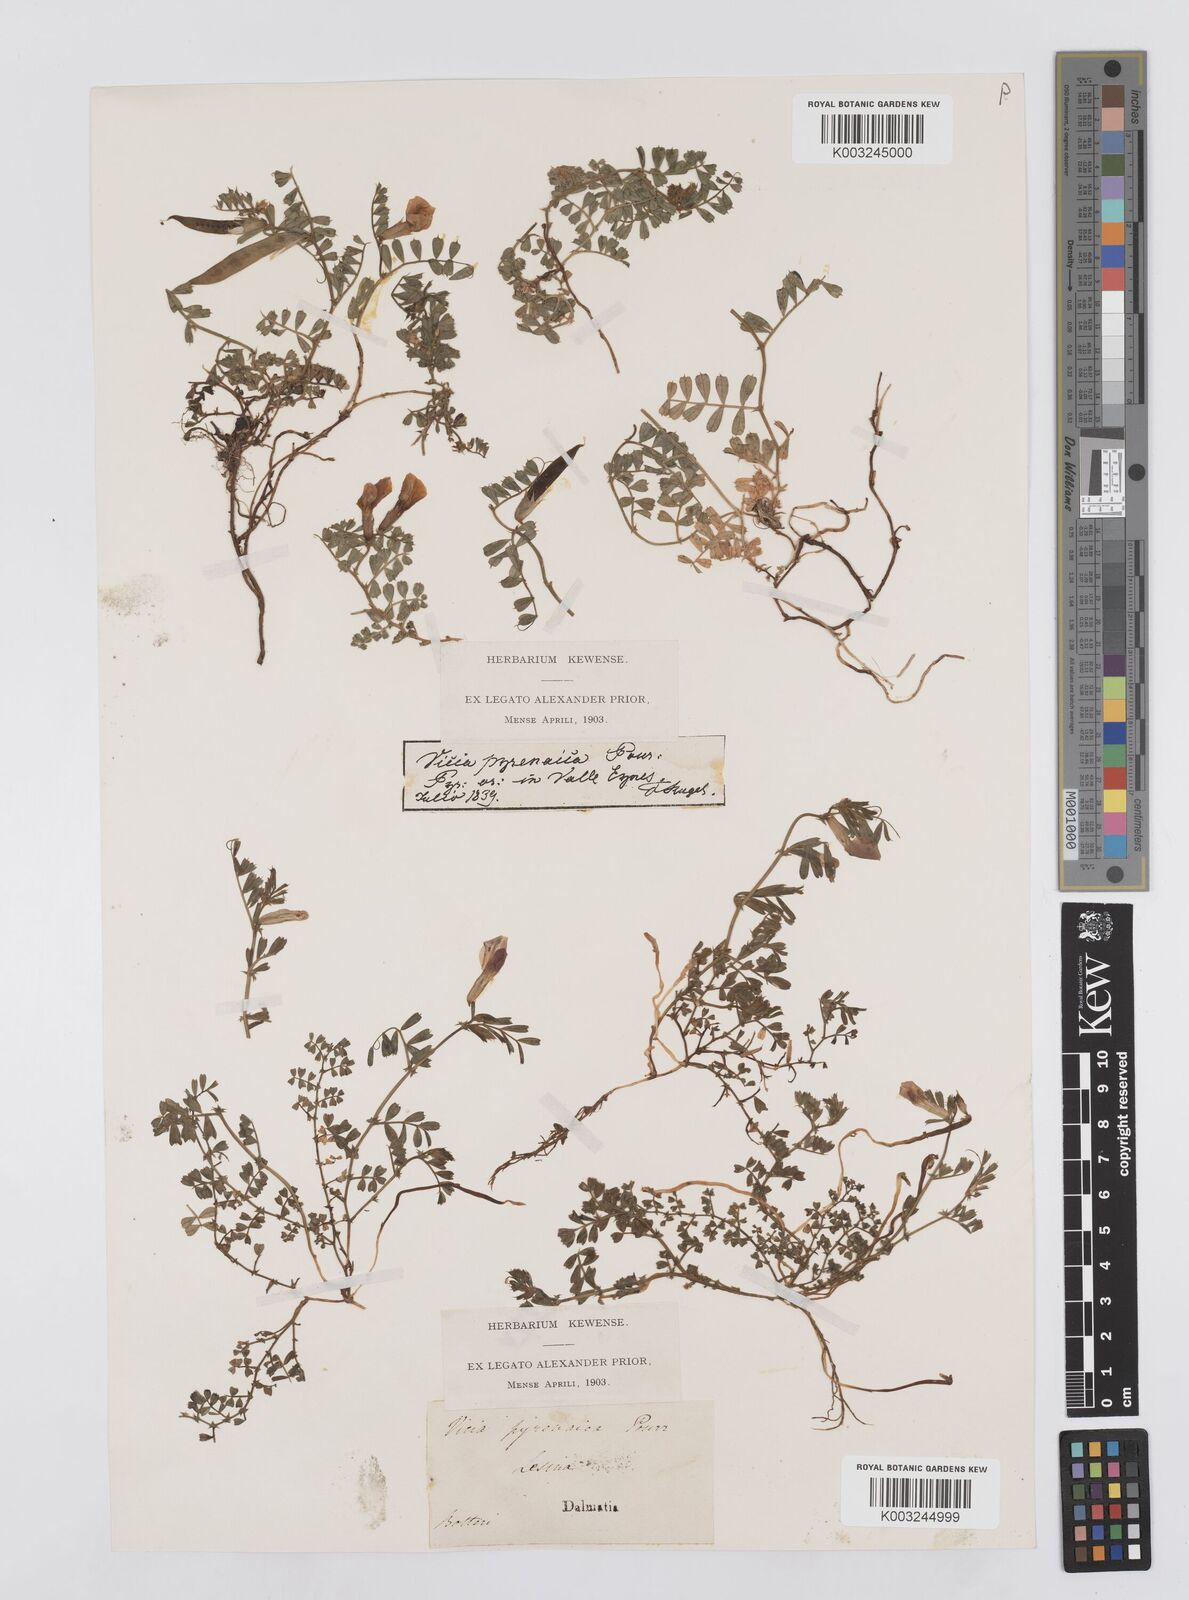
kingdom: Plantae
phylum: Tracheophyta
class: Magnoliopsida
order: Fabales
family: Fabaceae
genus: Vicia
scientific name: Vicia pyrenaica
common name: Pyrenean vetch
